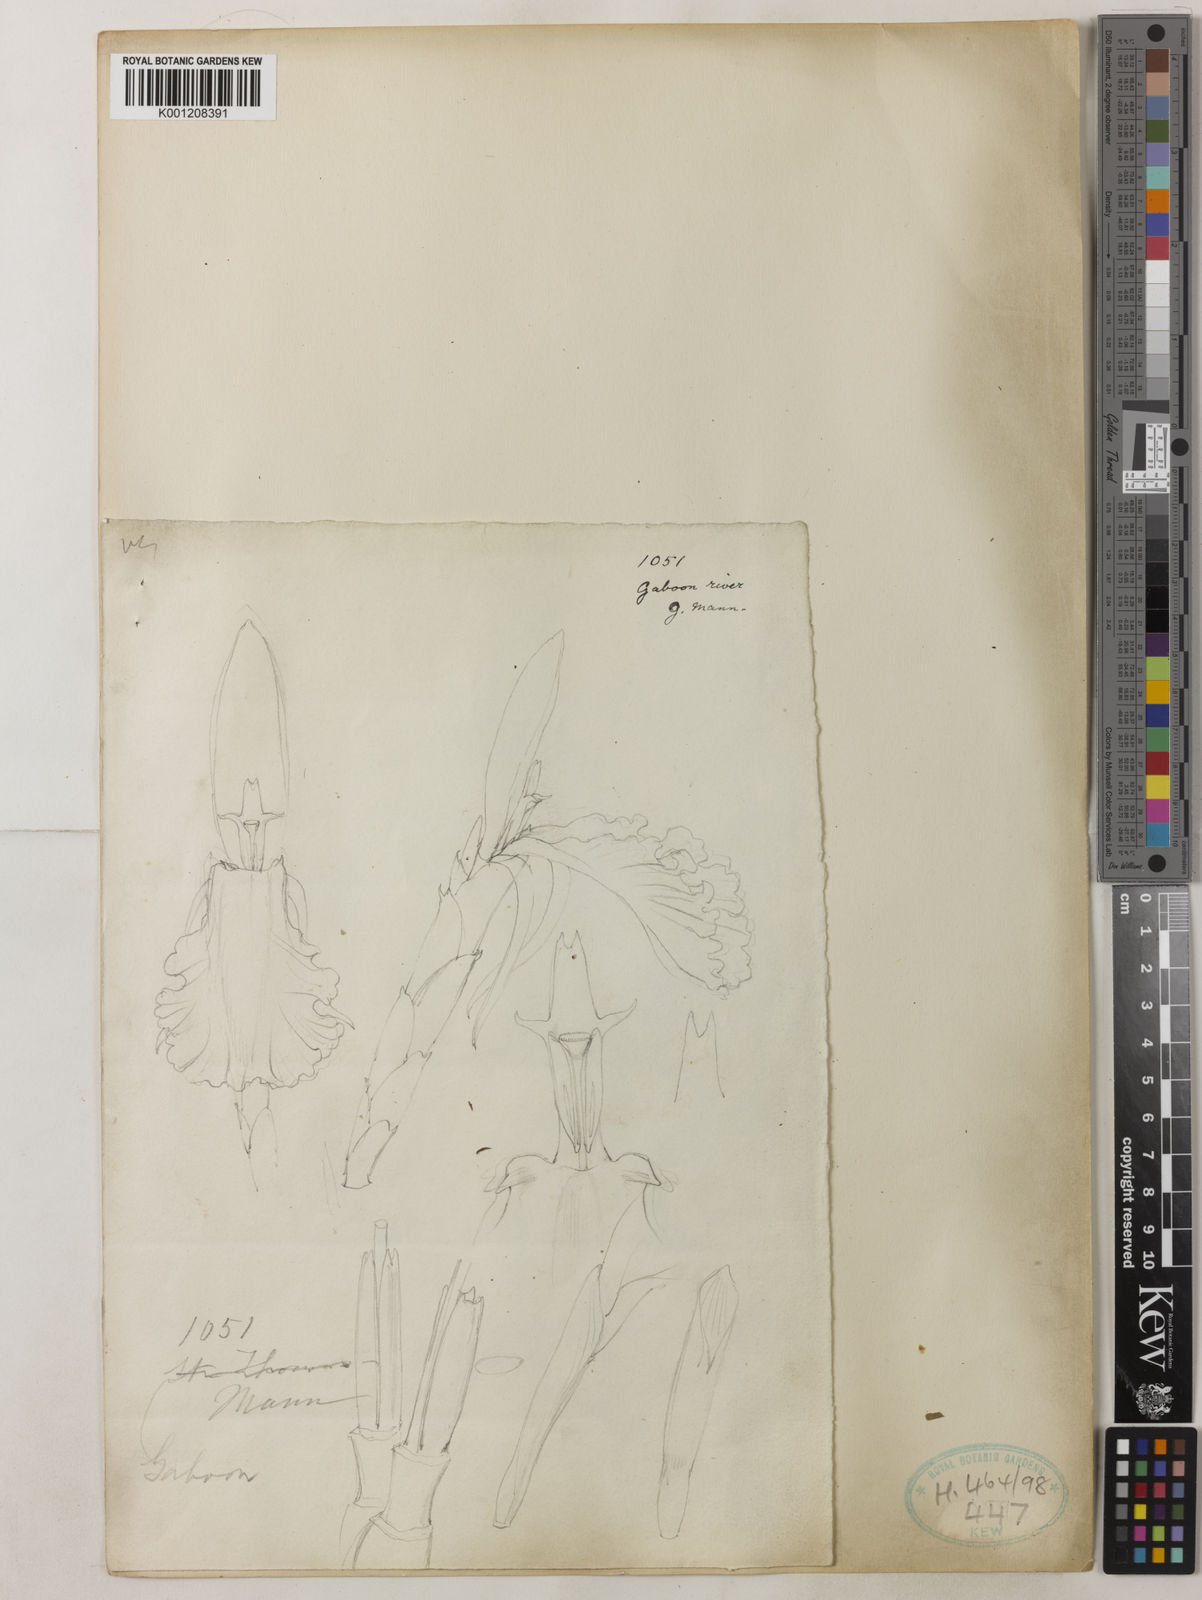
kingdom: Plantae
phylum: Tracheophyta
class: Liliopsida
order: Zingiberales
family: Zingiberaceae
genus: Aframomum
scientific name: Aframomum giganteum
